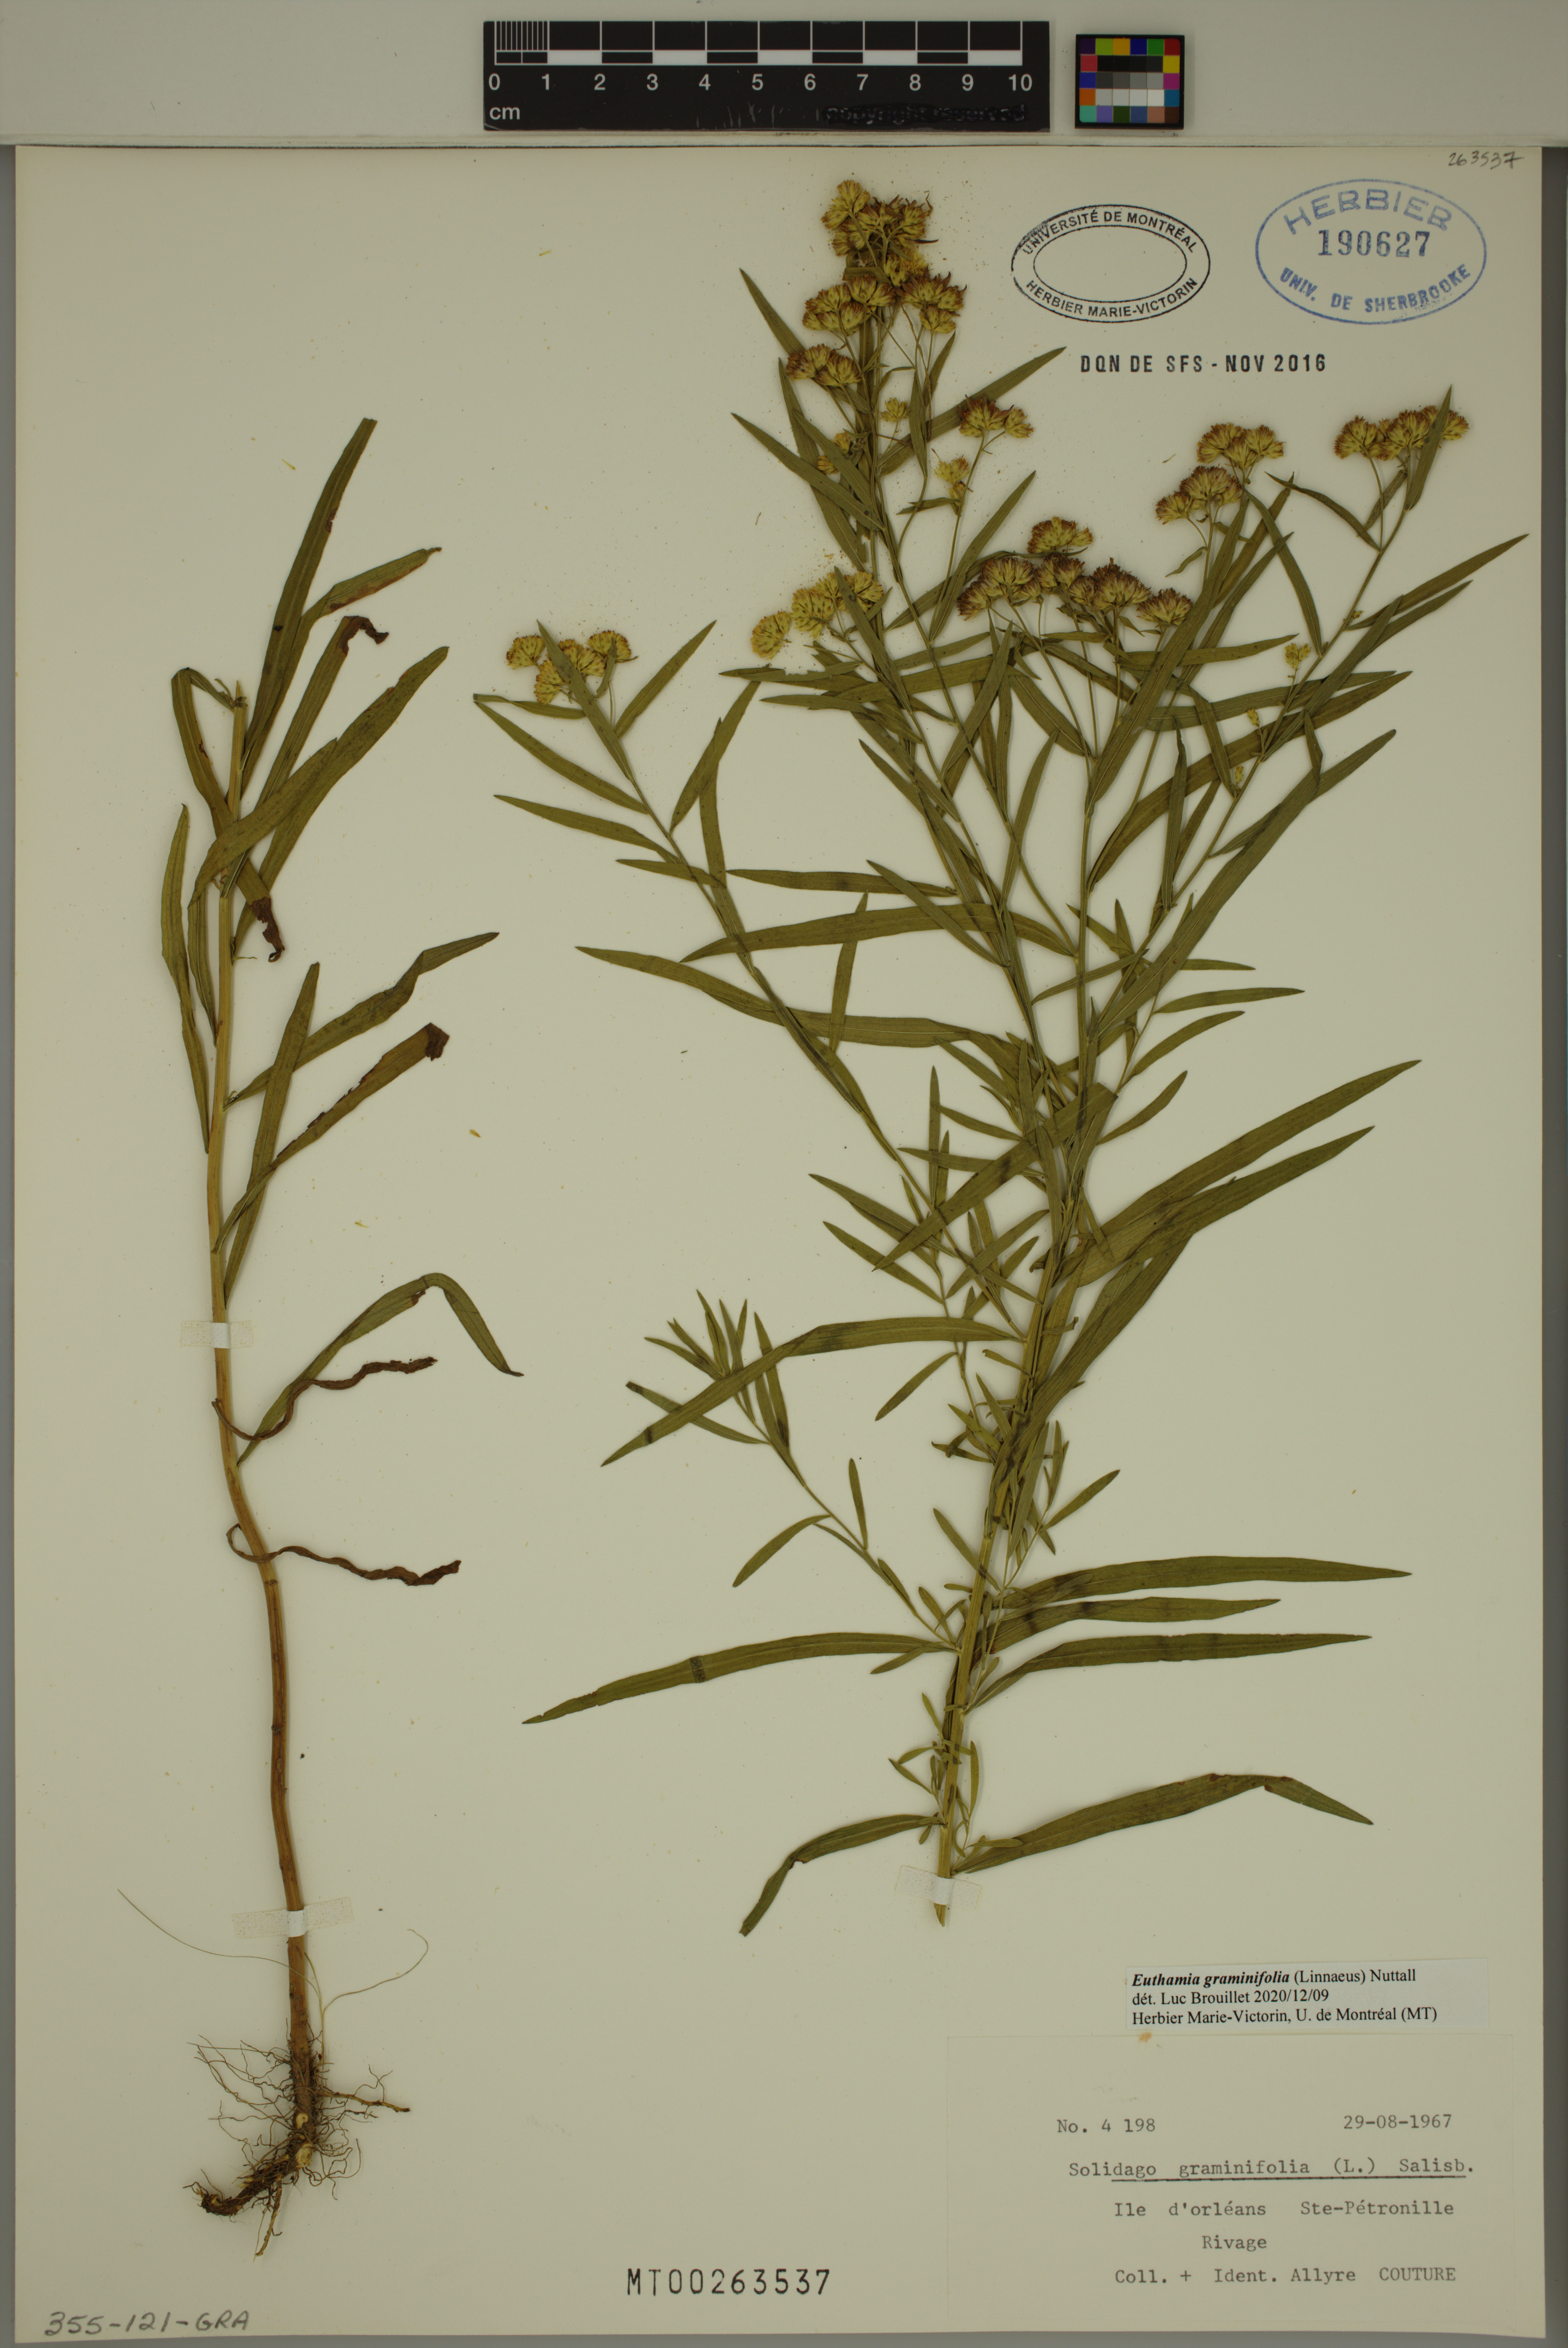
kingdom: Plantae
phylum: Tracheophyta
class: Magnoliopsida
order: Asterales
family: Asteraceae
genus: Euthamia
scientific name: Euthamia graminifolia
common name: Common goldentop
